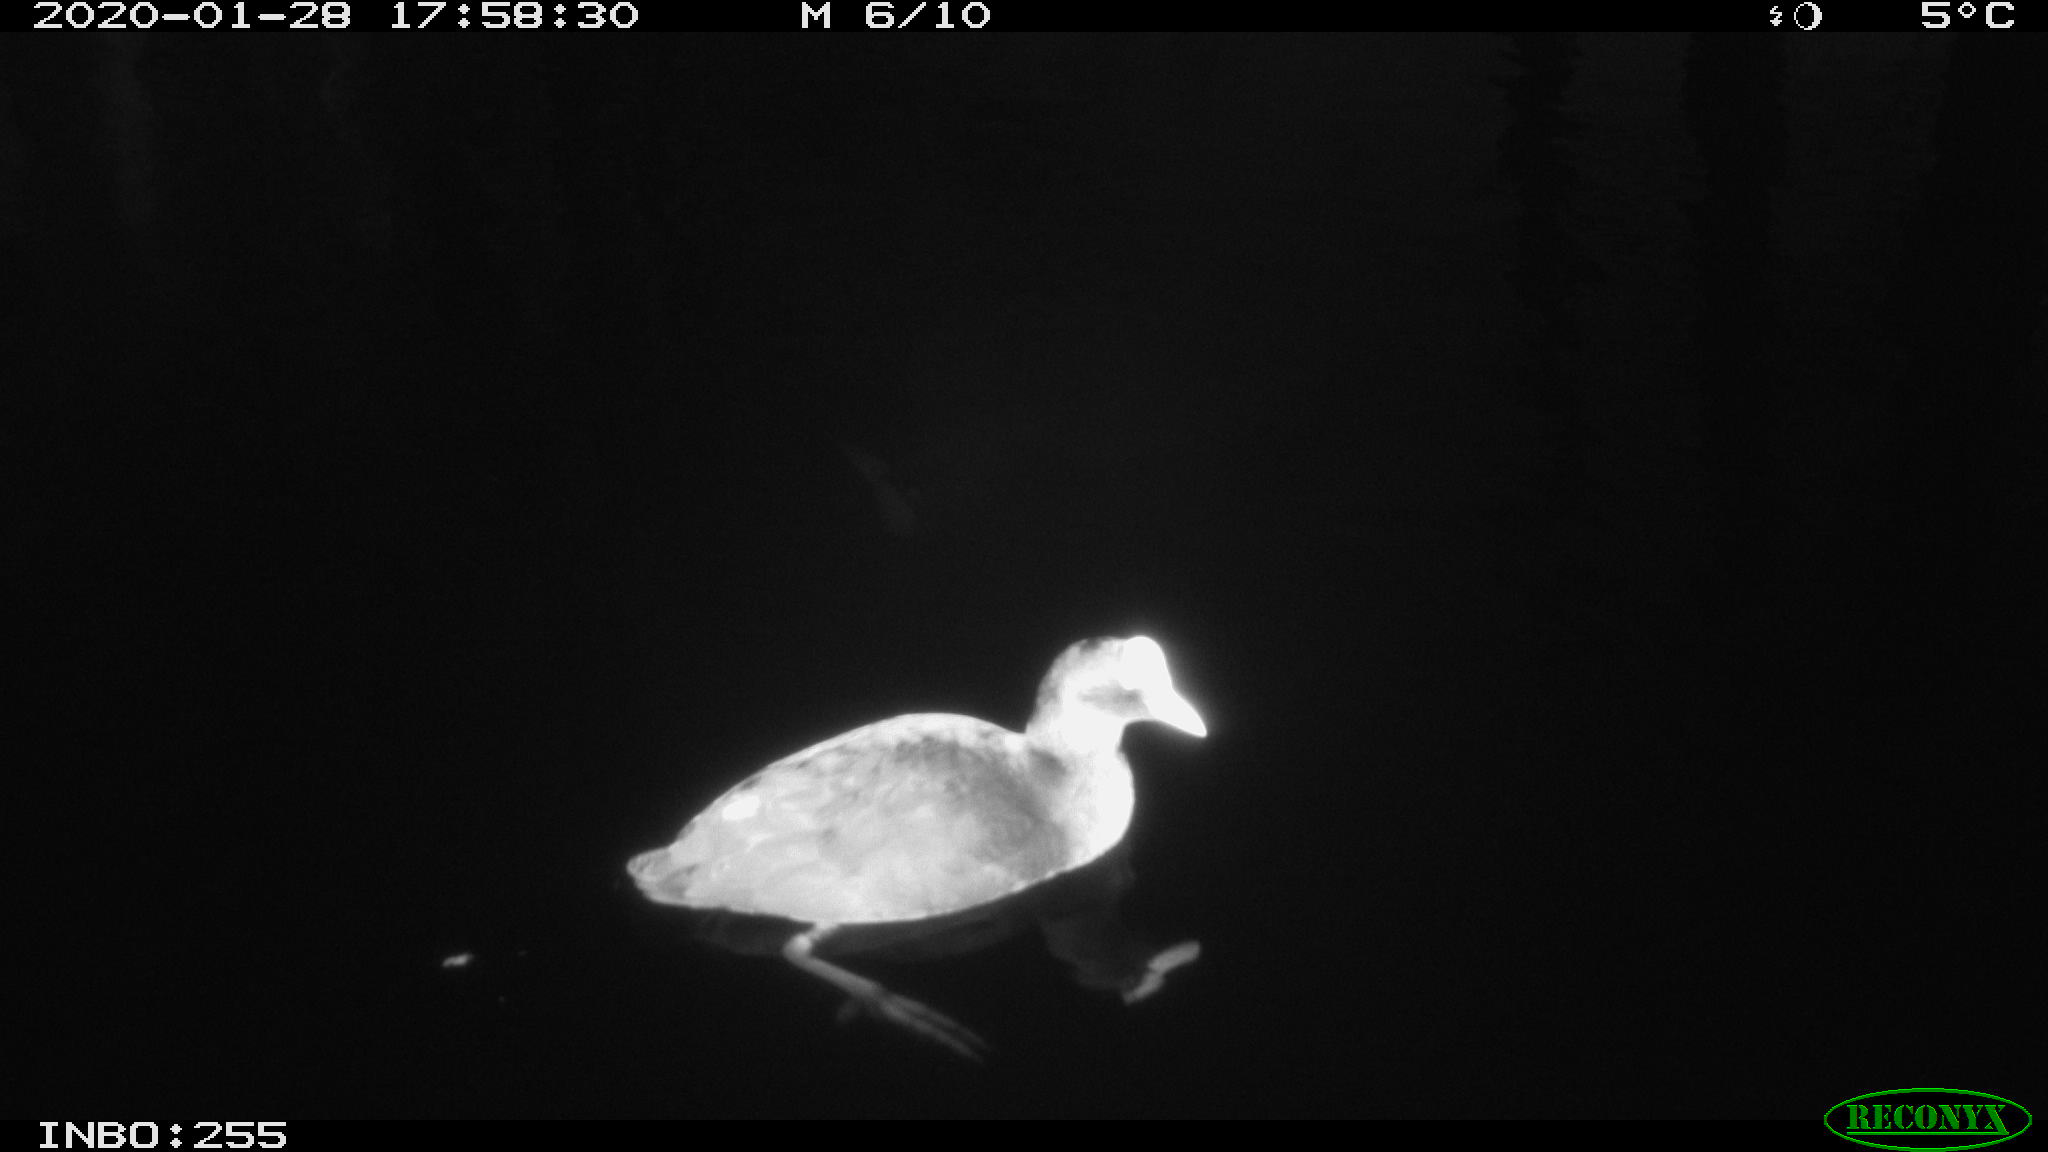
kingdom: Animalia
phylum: Chordata
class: Aves
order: Gruiformes
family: Rallidae
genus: Gallinula
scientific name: Gallinula chloropus
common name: Common moorhen
